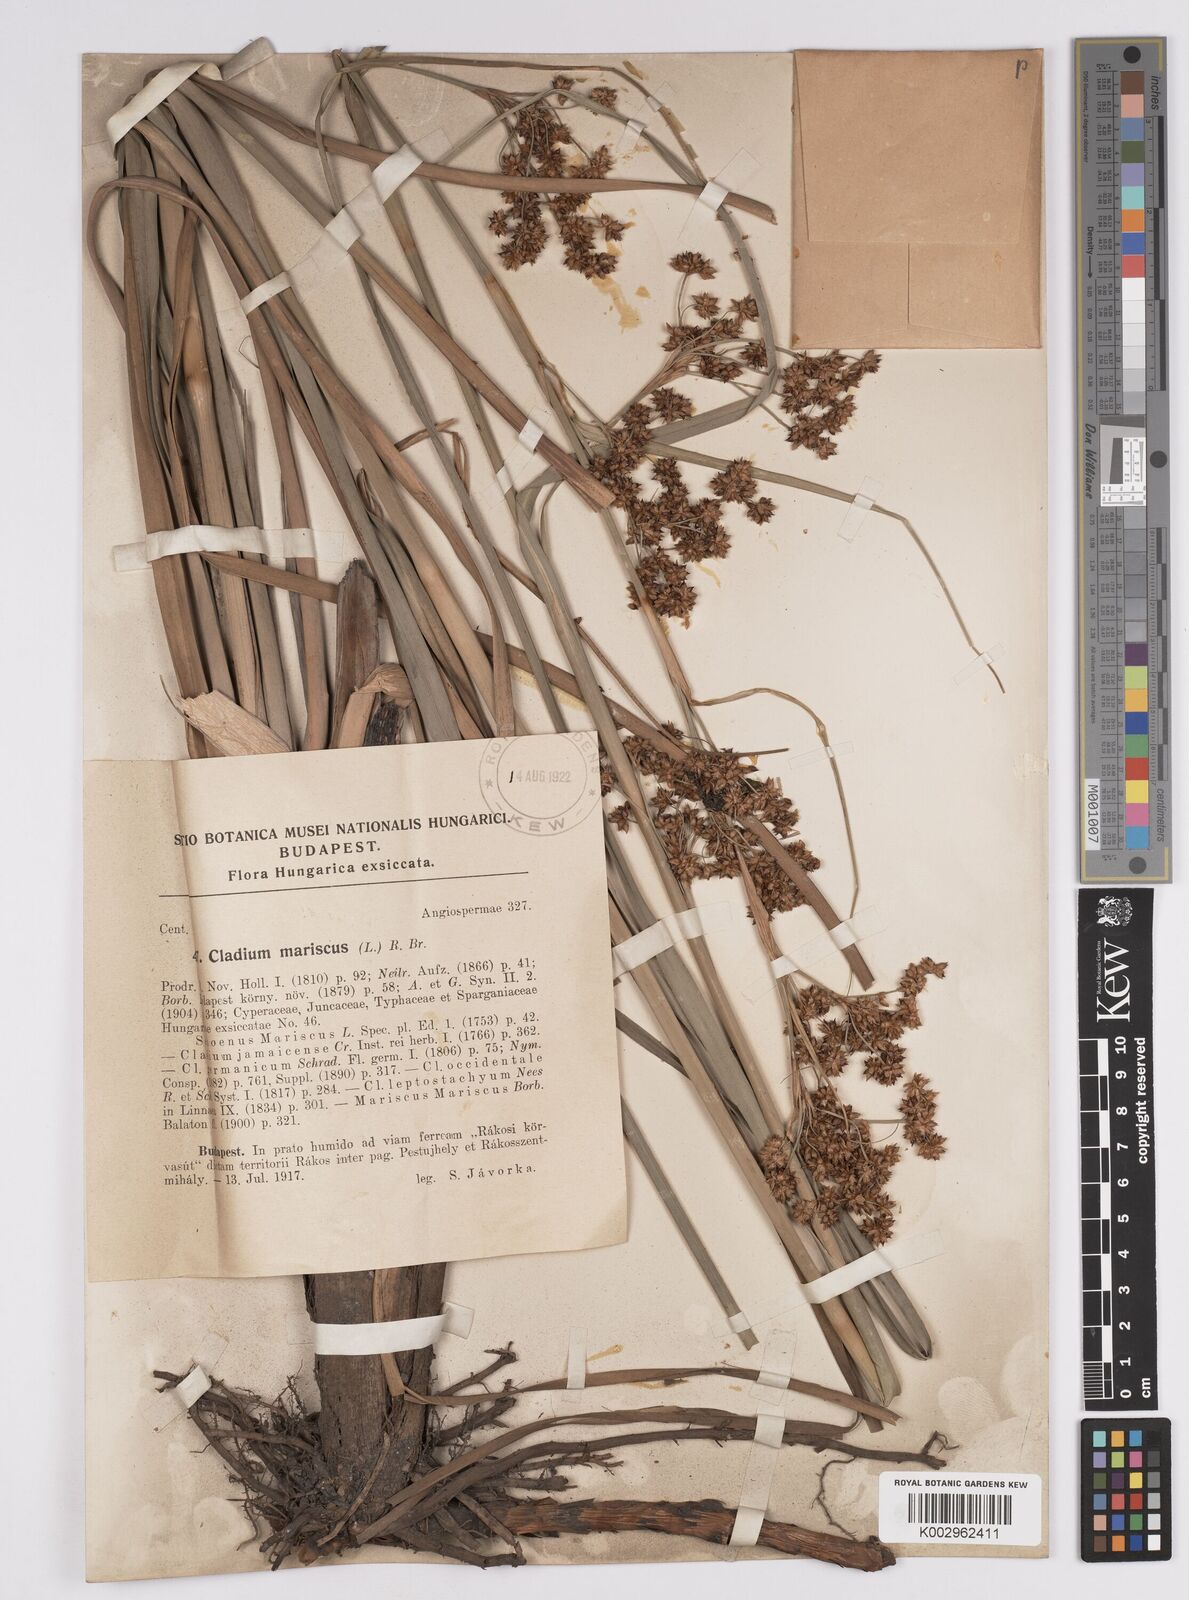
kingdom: Plantae
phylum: Tracheophyta
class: Liliopsida
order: Poales
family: Cyperaceae
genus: Cladium
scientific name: Cladium mariscus
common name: Great fen-sedge
